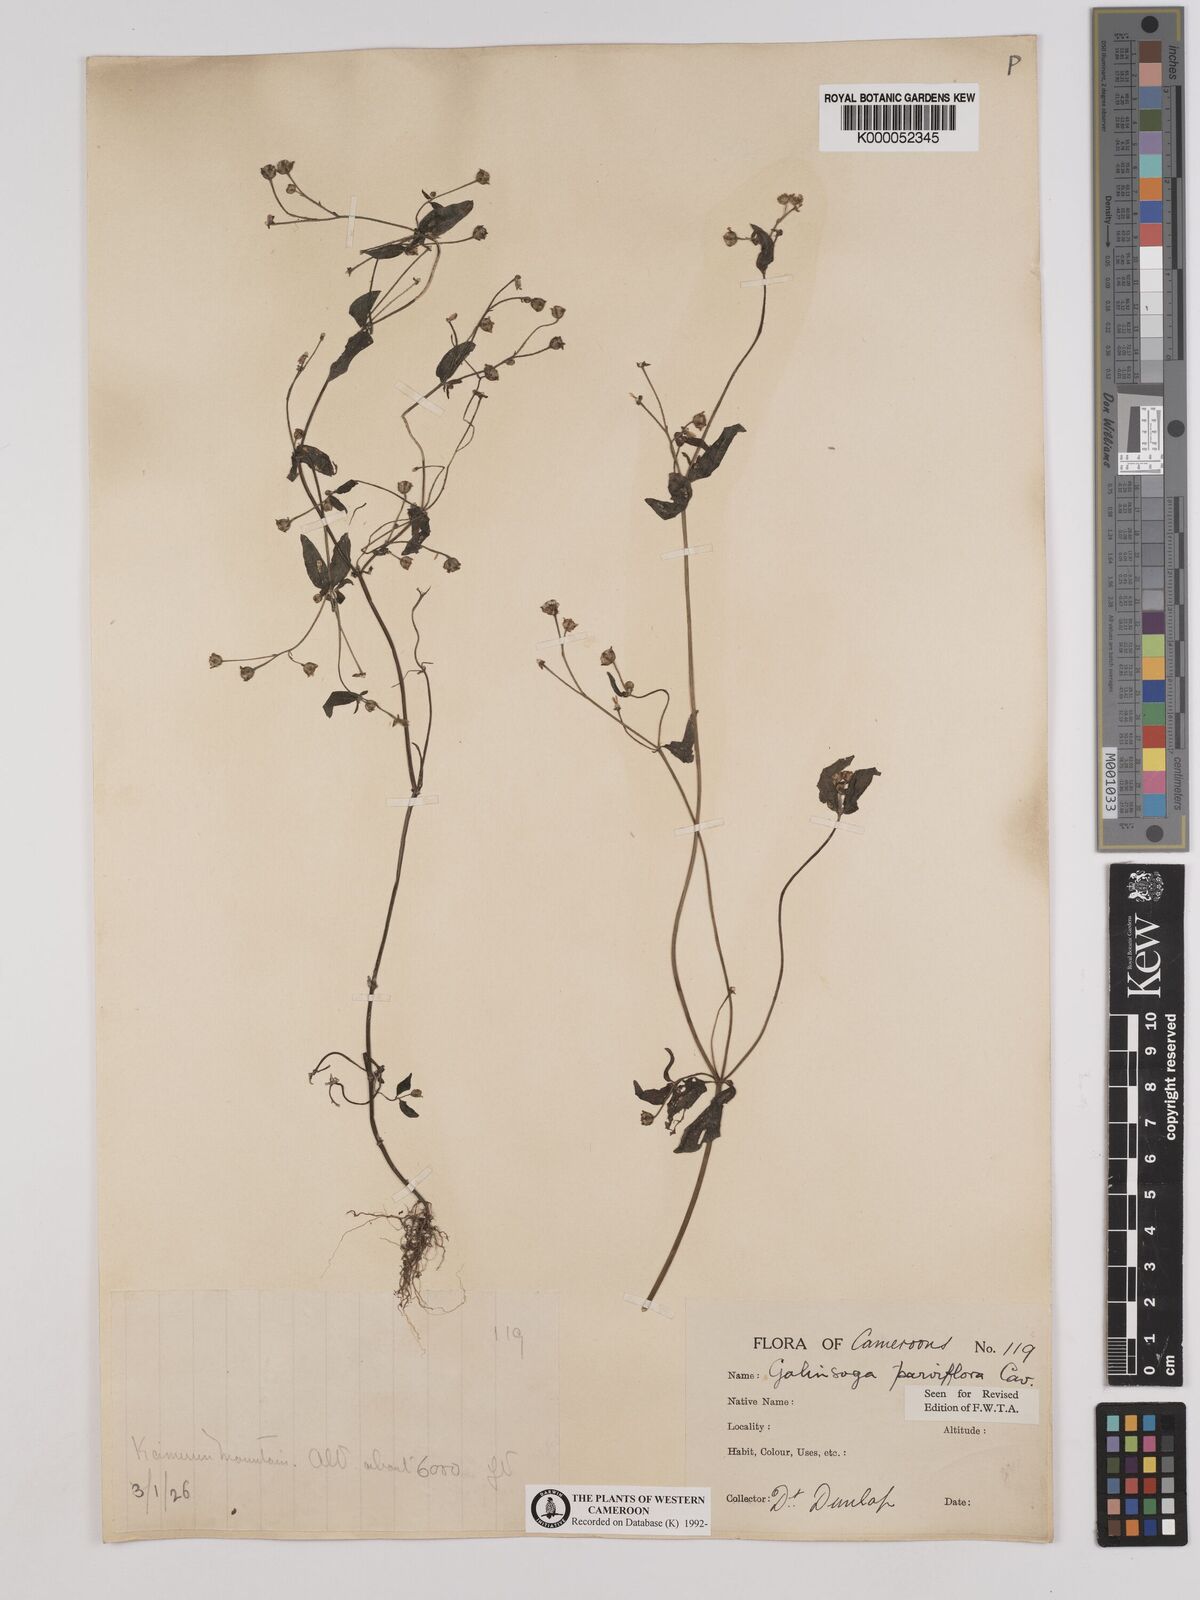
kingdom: Plantae
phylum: Tracheophyta
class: Magnoliopsida
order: Asterales
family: Asteraceae
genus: Galinsoga
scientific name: Galinsoga parviflora
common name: Gallant soldier
